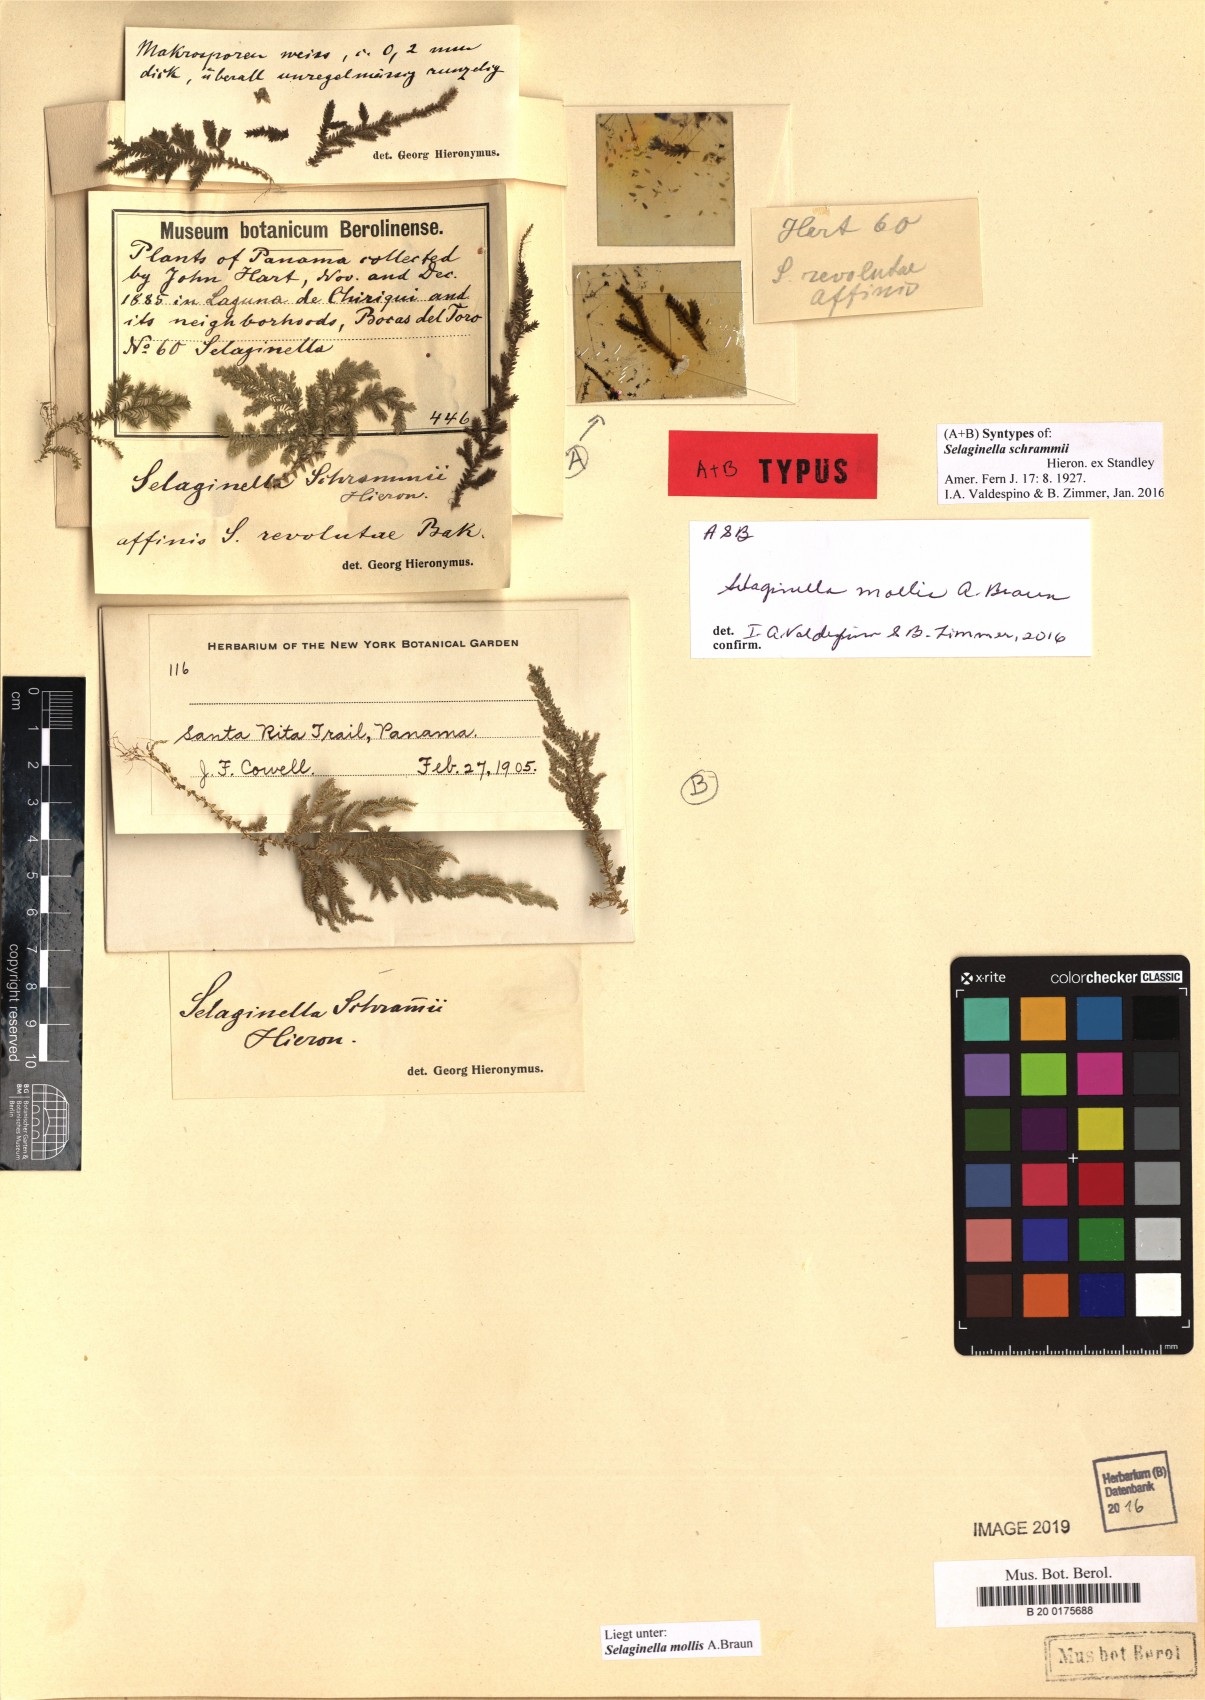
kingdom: Plantae
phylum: Tracheophyta
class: Lycopodiopsida
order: Selaginellales
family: Selaginellaceae
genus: Selaginella
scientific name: Selaginella mollis
